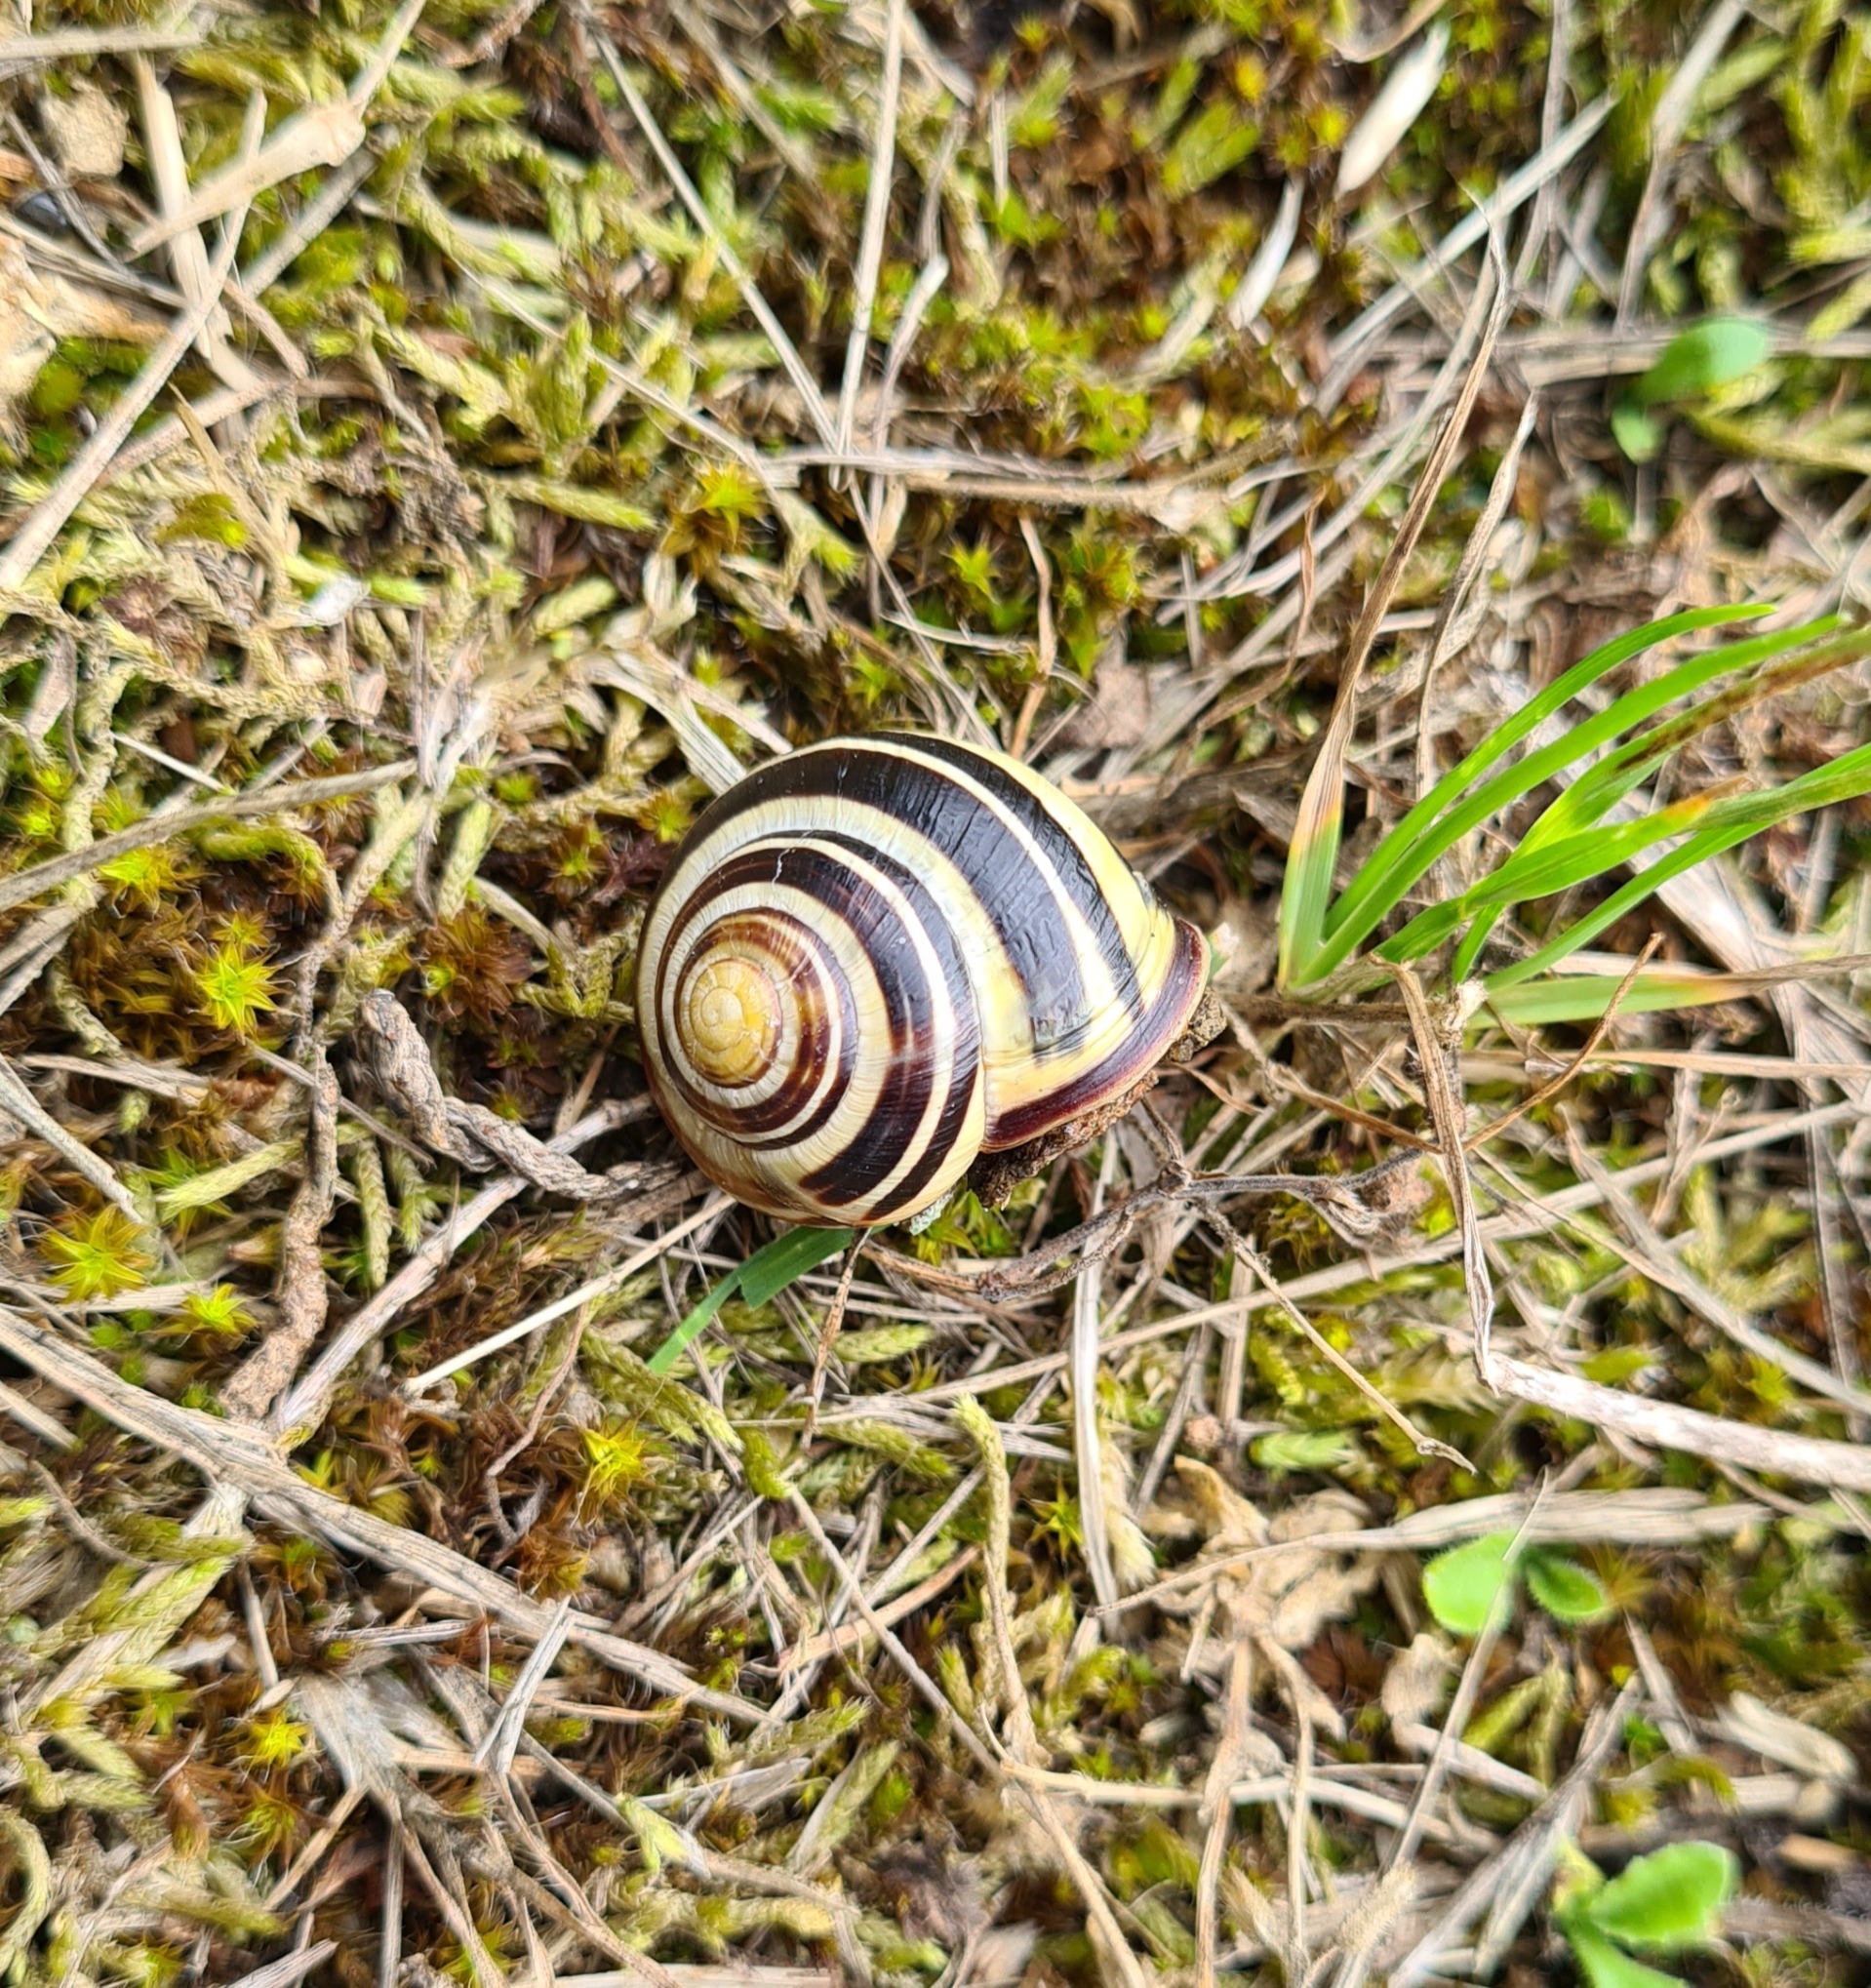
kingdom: Animalia
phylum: Mollusca
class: Gastropoda
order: Stylommatophora
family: Helicidae
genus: Cepaea
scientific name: Cepaea nemoralis
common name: Lundsnegl
